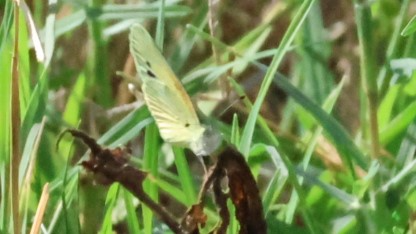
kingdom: Animalia
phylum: Arthropoda
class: Insecta
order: Lepidoptera
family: Pieridae
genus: Nathalis
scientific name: Nathalis iole
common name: Dainty Sulphur
